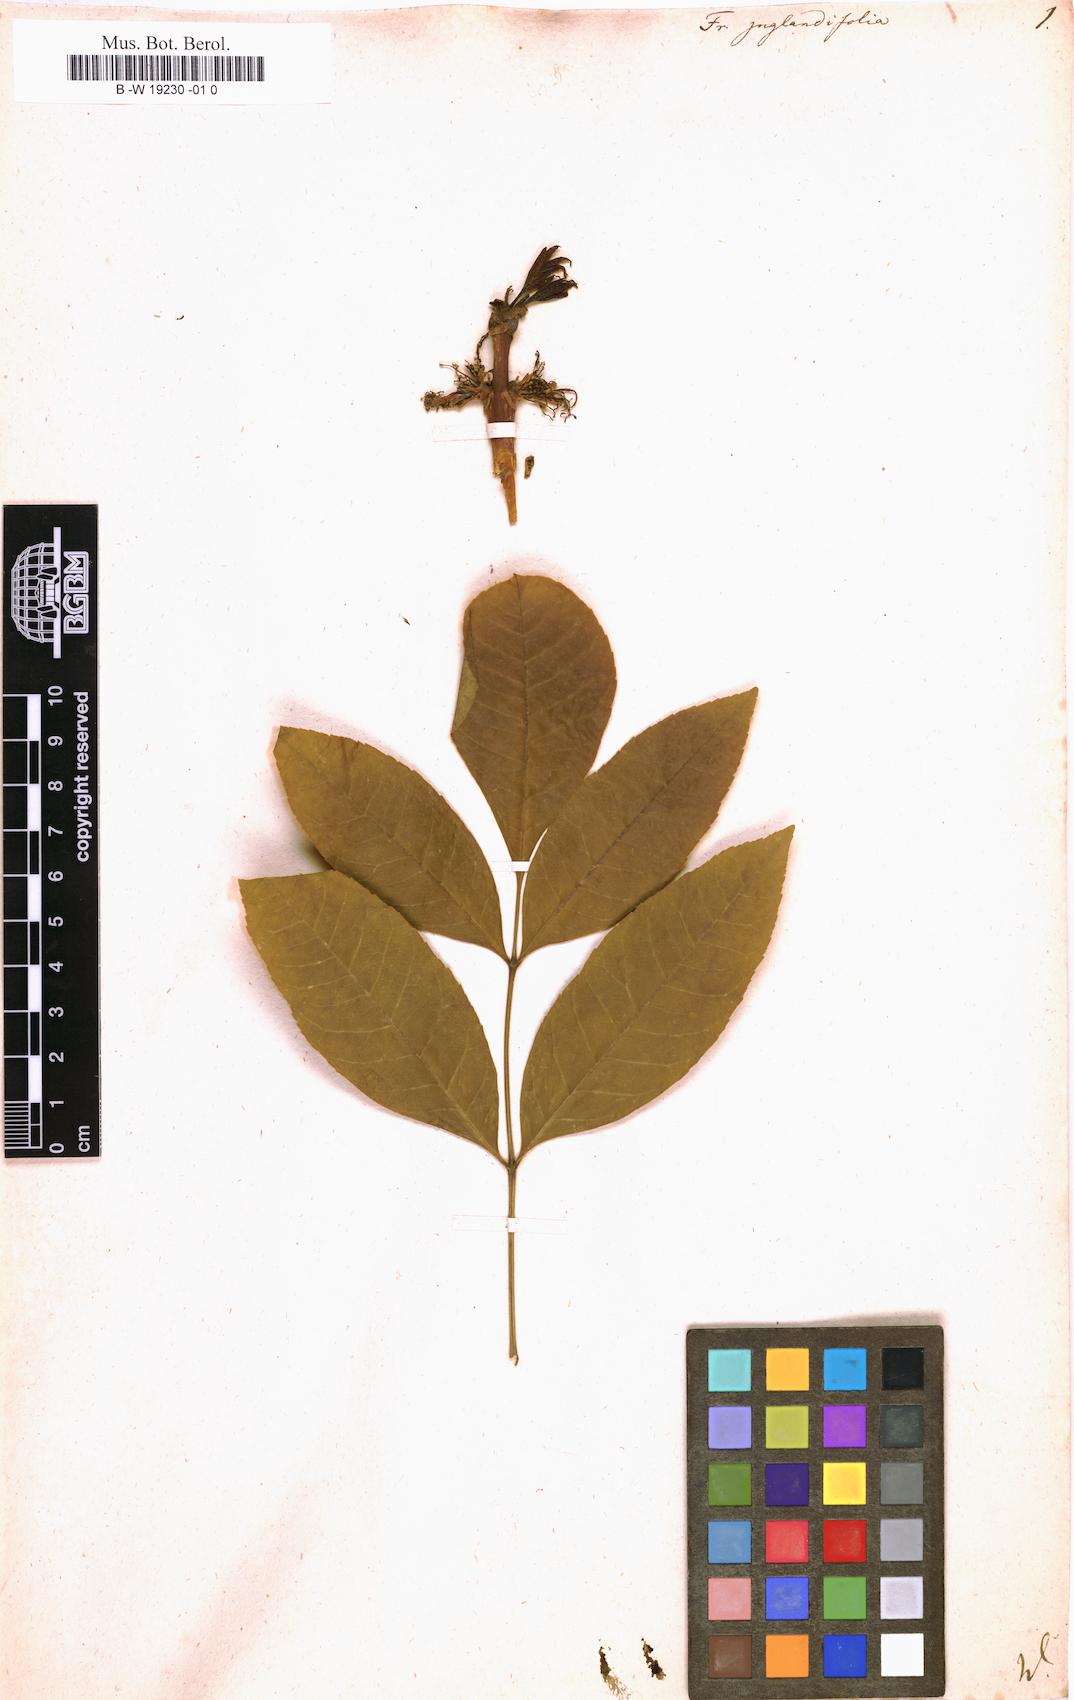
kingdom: Plantae
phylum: Tracheophyta
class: Magnoliopsida
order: Lamiales
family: Oleaceae
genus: Fraxinus
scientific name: Fraxinus americana
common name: White ash
